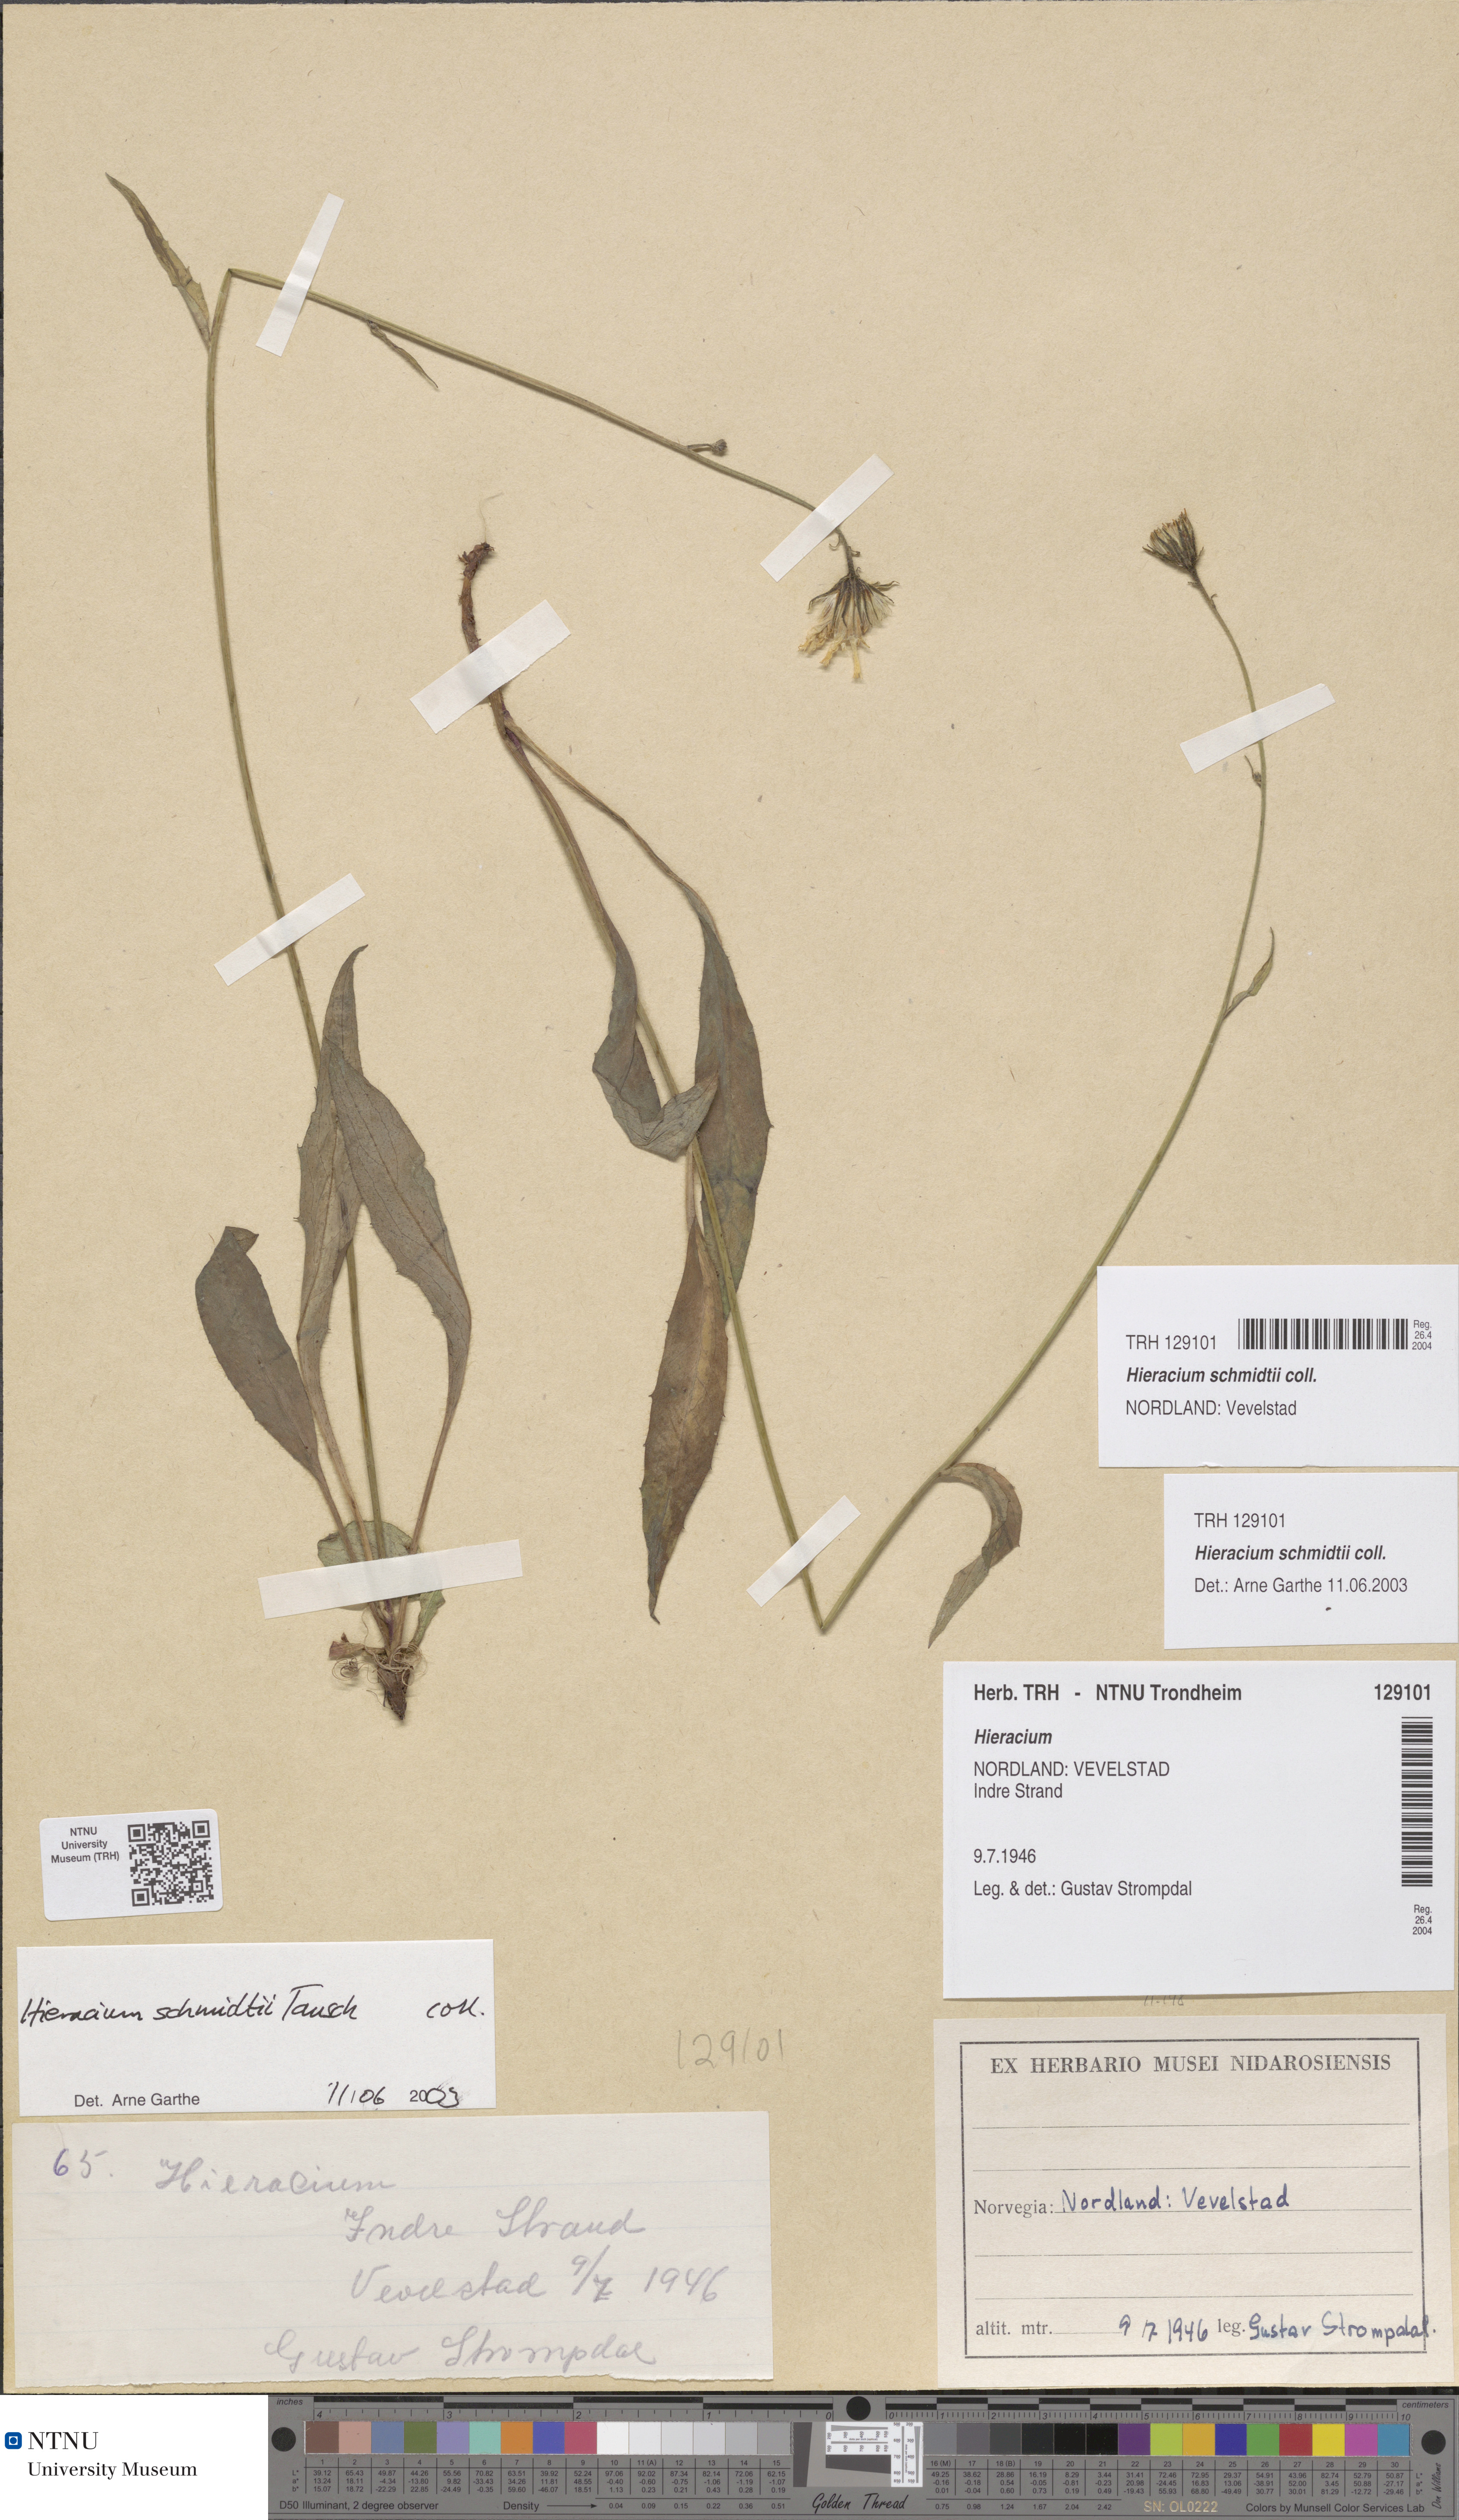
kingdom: Plantae
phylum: Tracheophyta
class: Magnoliopsida
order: Asterales
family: Asteraceae
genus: Hieracium
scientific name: Hieracium schmidtii
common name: Schmidt's hawkweed
